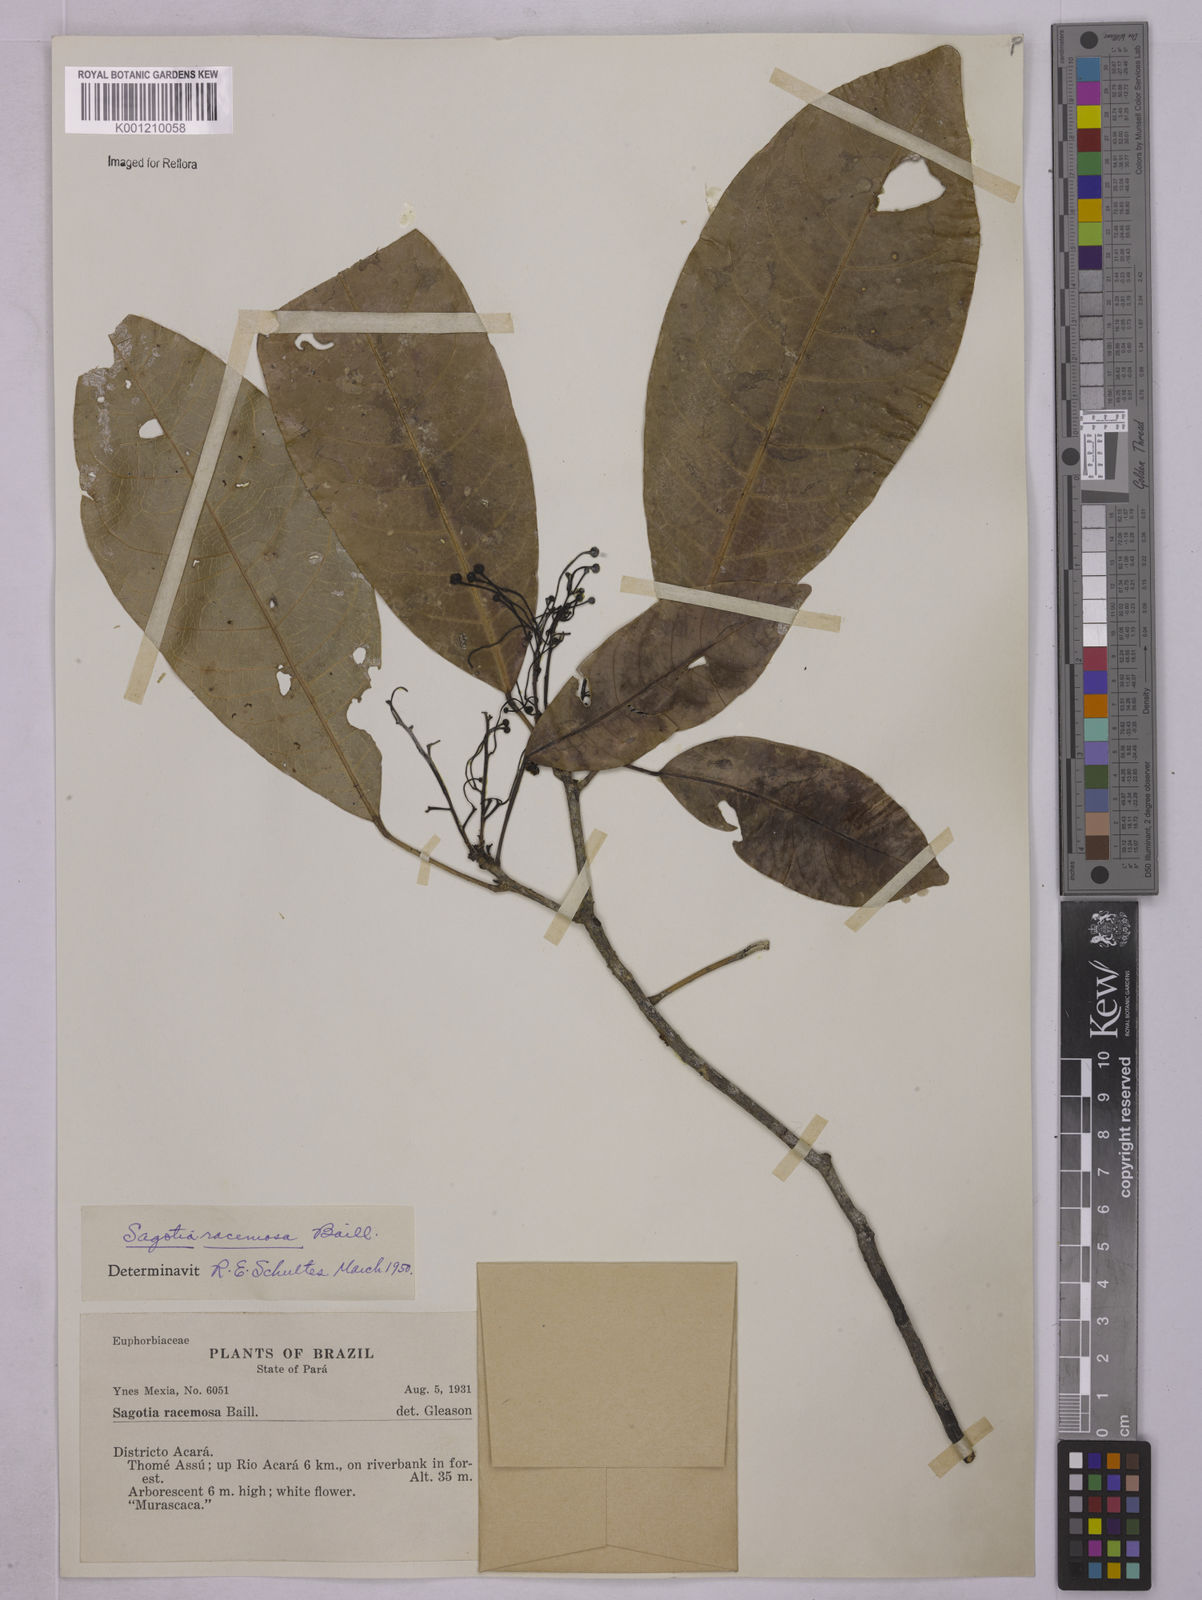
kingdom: Plantae
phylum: Tracheophyta
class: Magnoliopsida
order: Malpighiales
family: Euphorbiaceae
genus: Sagotia
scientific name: Sagotia racemosa
